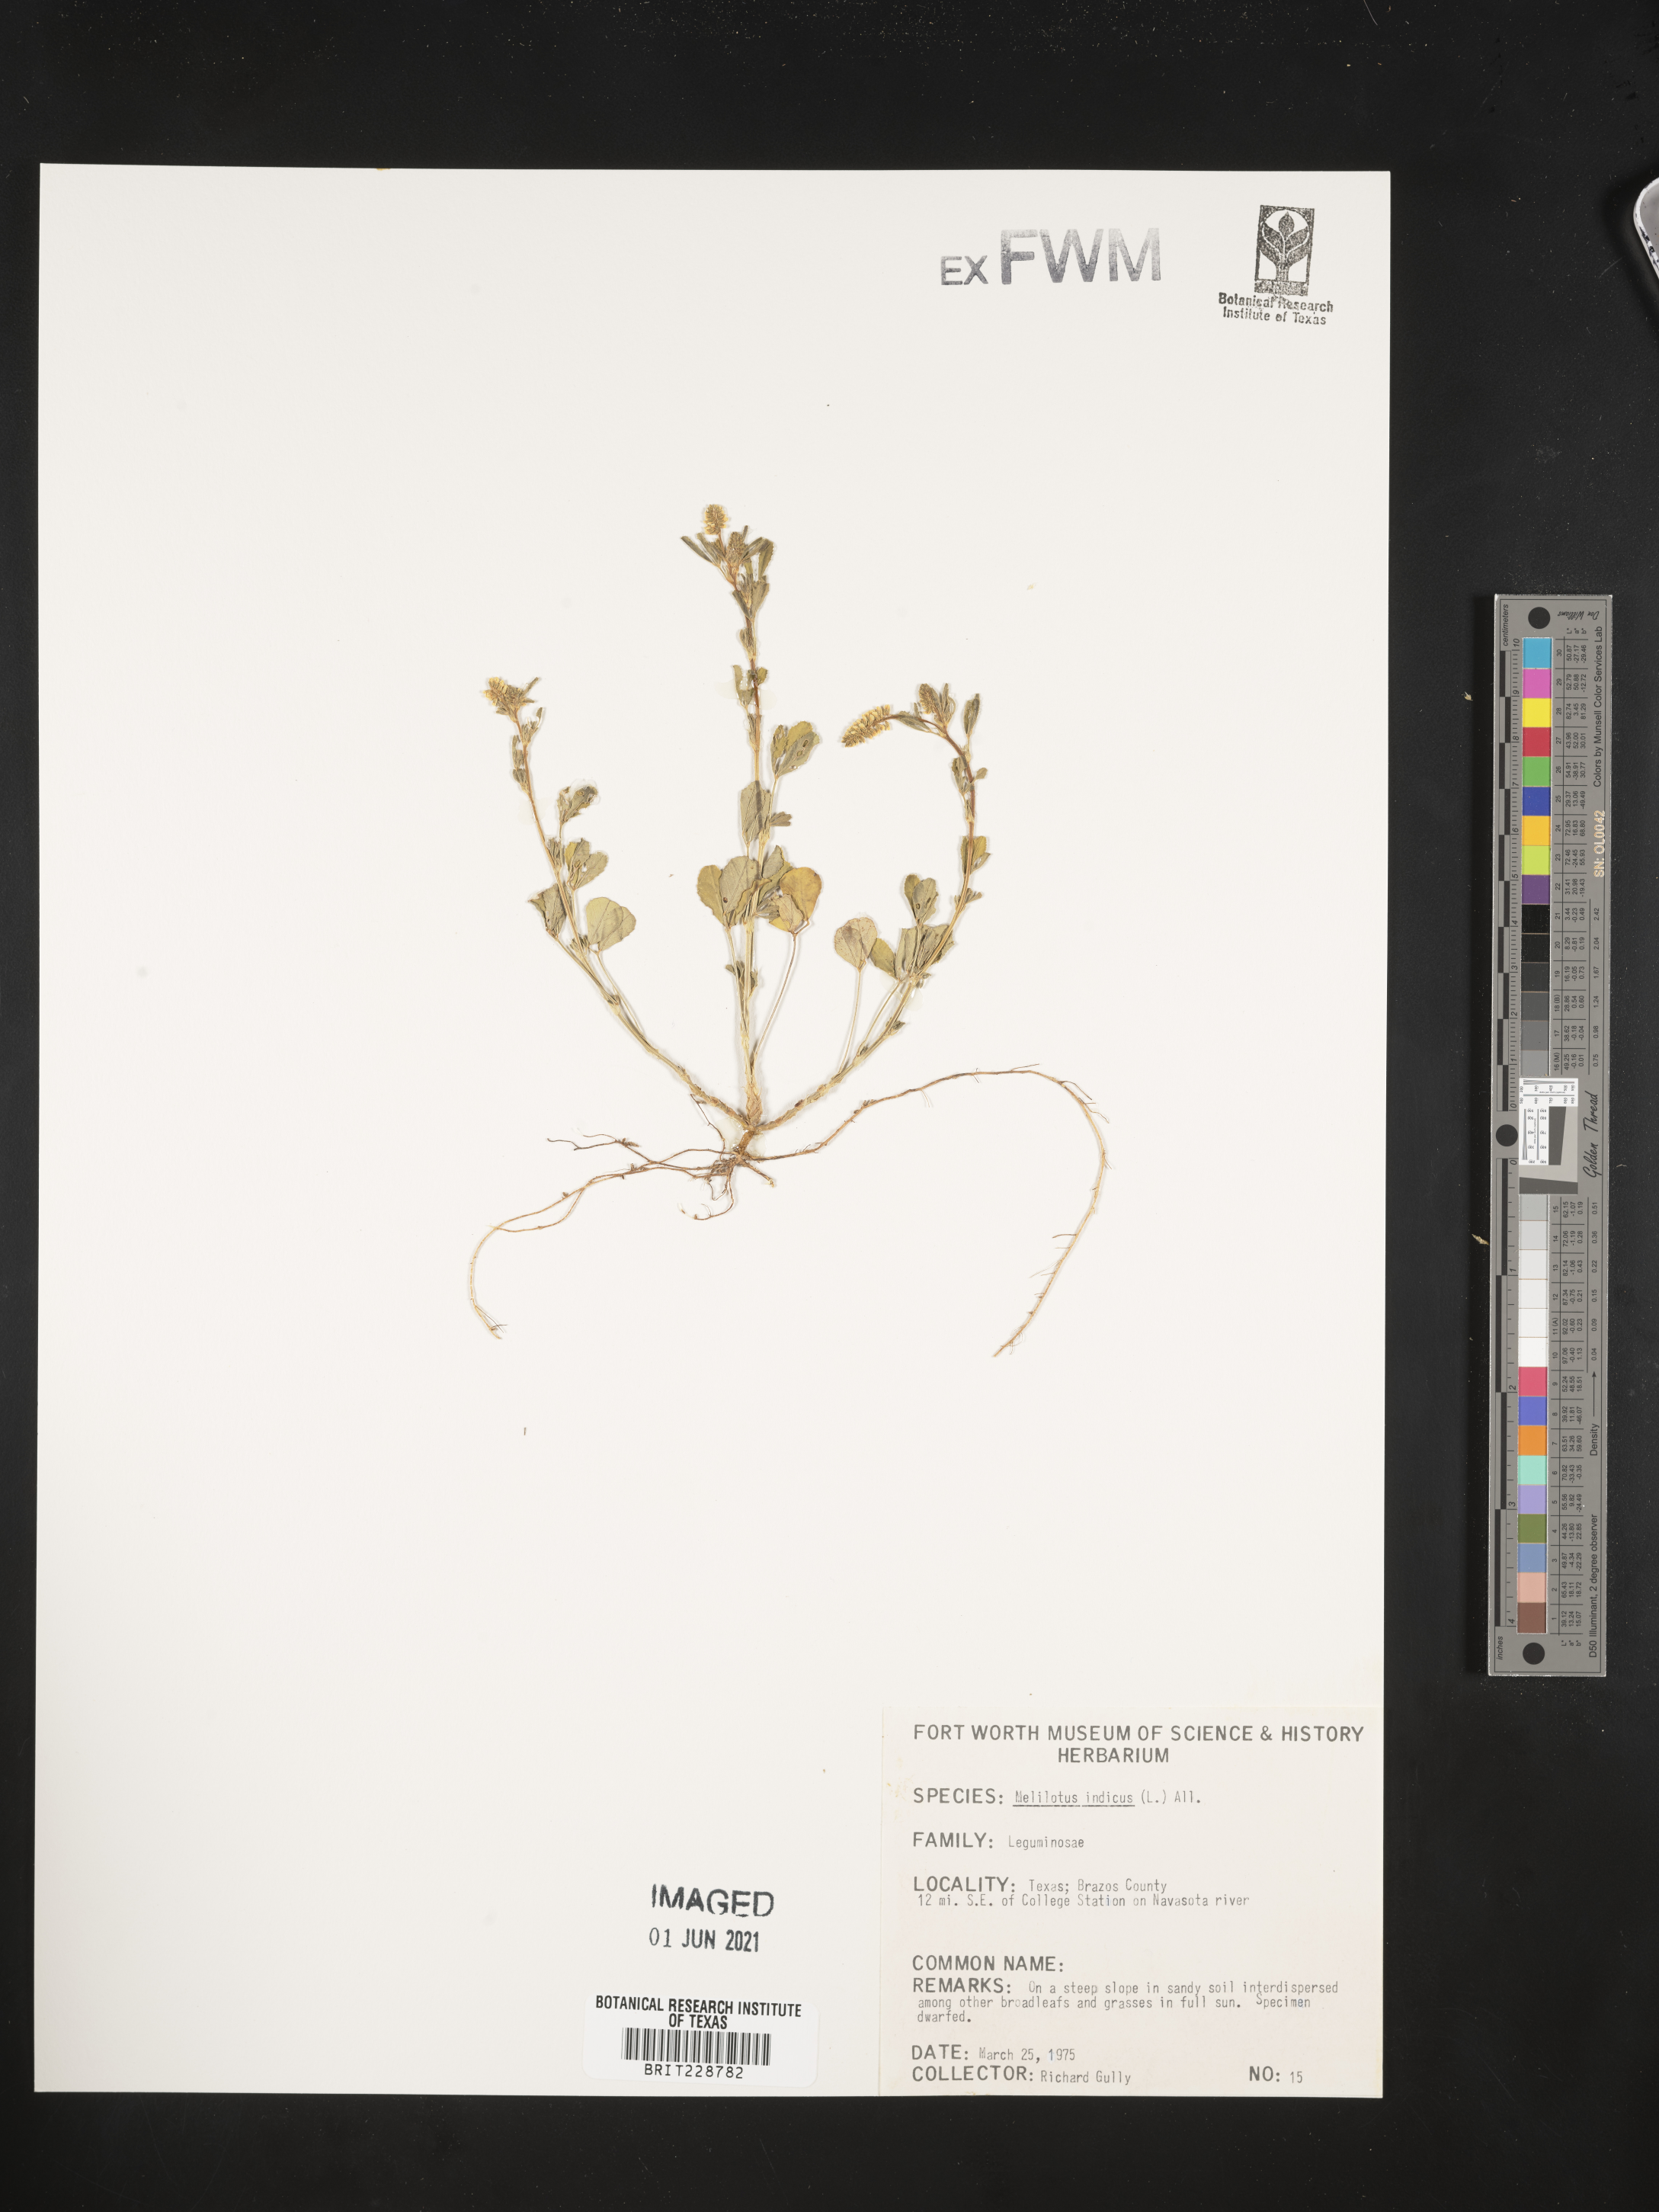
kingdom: Plantae
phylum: Tracheophyta
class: Magnoliopsida
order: Fabales
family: Fabaceae
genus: Melilotus
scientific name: Melilotus indicus
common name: Small melilot
